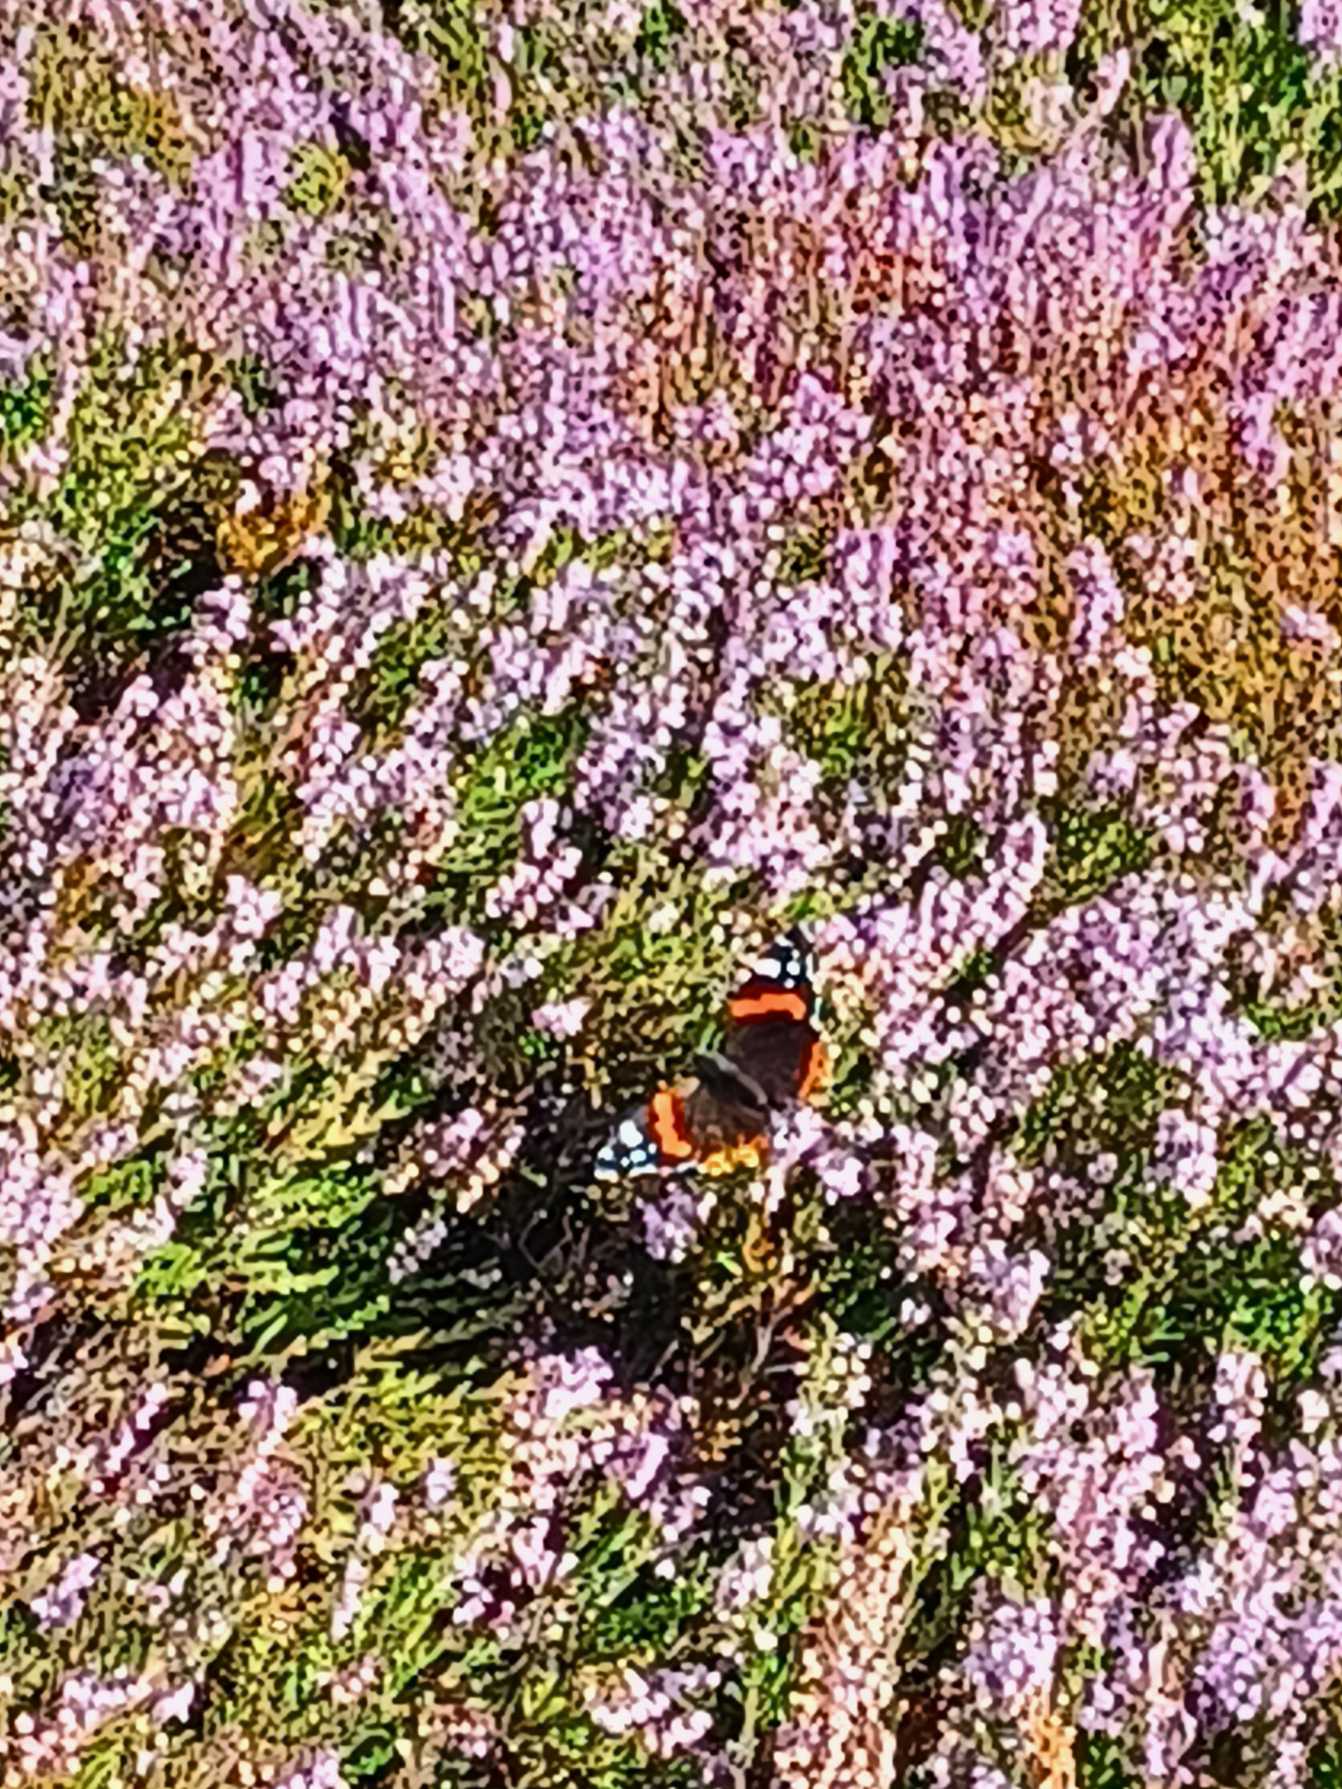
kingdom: Animalia
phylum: Arthropoda
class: Insecta
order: Lepidoptera
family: Nymphalidae
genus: Vanessa
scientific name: Vanessa atalanta
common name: Admiral
